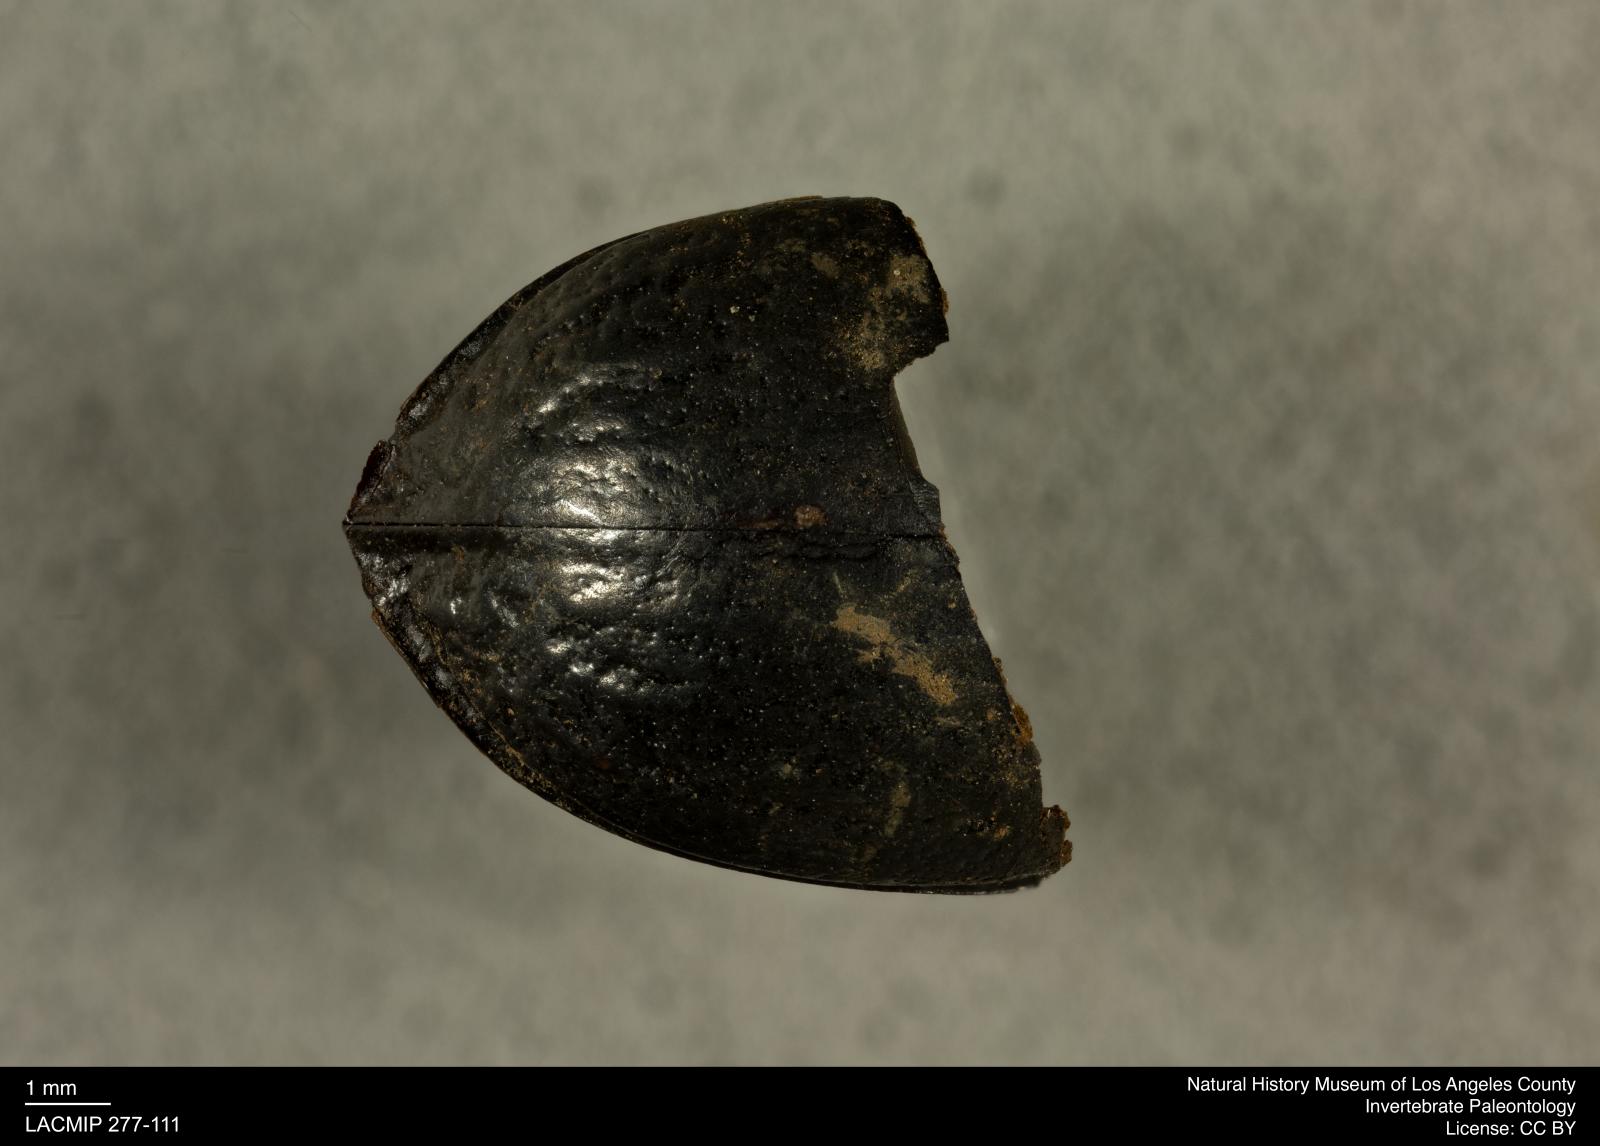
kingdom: Animalia
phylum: Arthropoda
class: Insecta
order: Coleoptera
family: Tenebrionidae
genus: Coniontis
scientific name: Coniontis abdominalis
